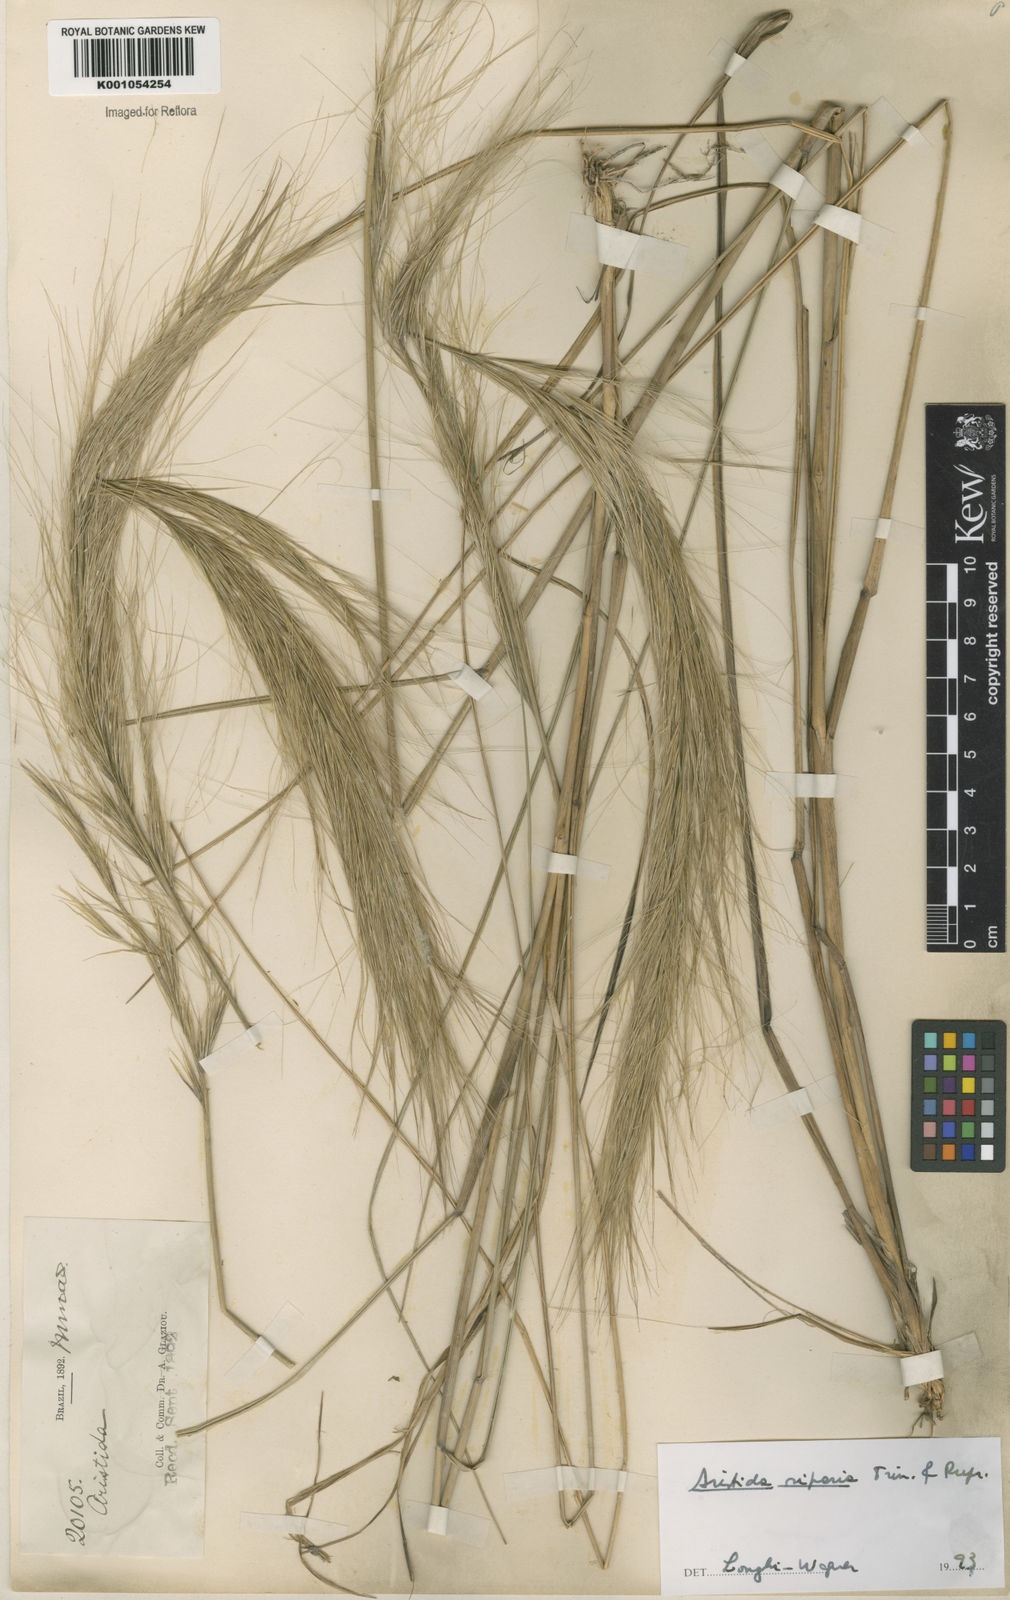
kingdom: Plantae
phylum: Tracheophyta
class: Liliopsida
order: Poales
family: Poaceae
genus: Aristida
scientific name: Aristida riparia
